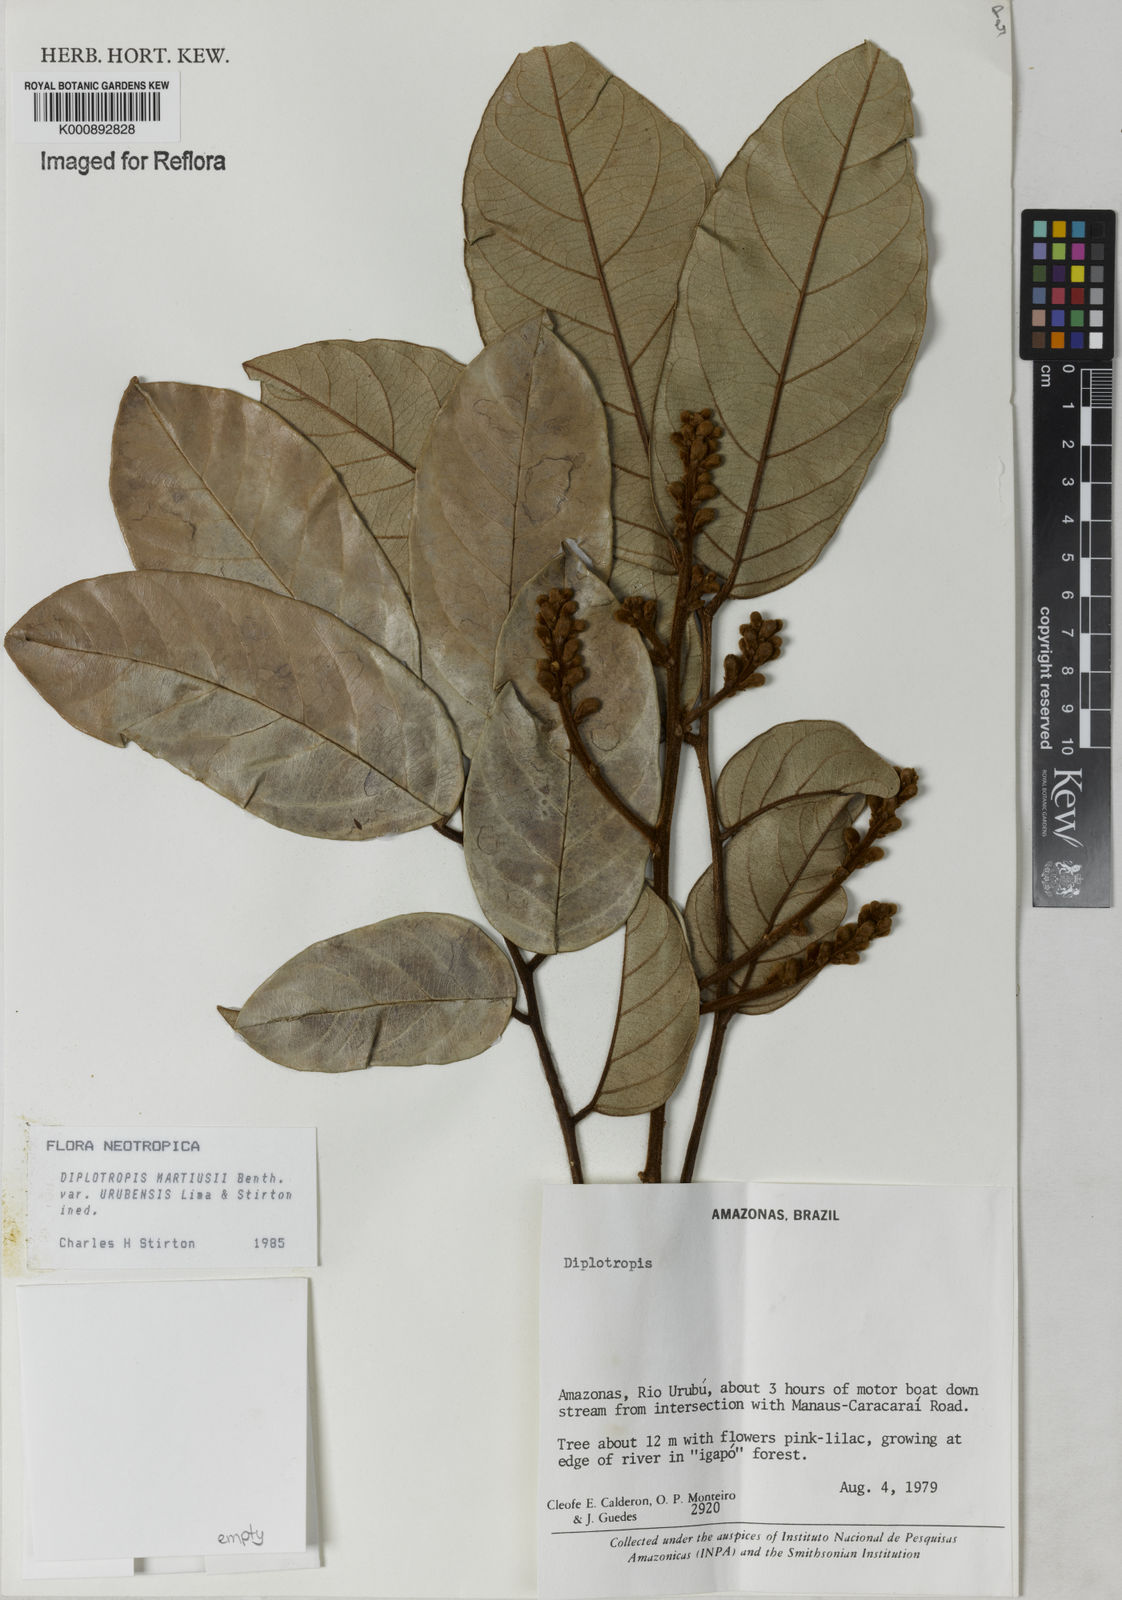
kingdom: Plantae
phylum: Tracheophyta
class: Magnoliopsida
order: Fabales
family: Fabaceae
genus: Diplotropis
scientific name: Diplotropis
